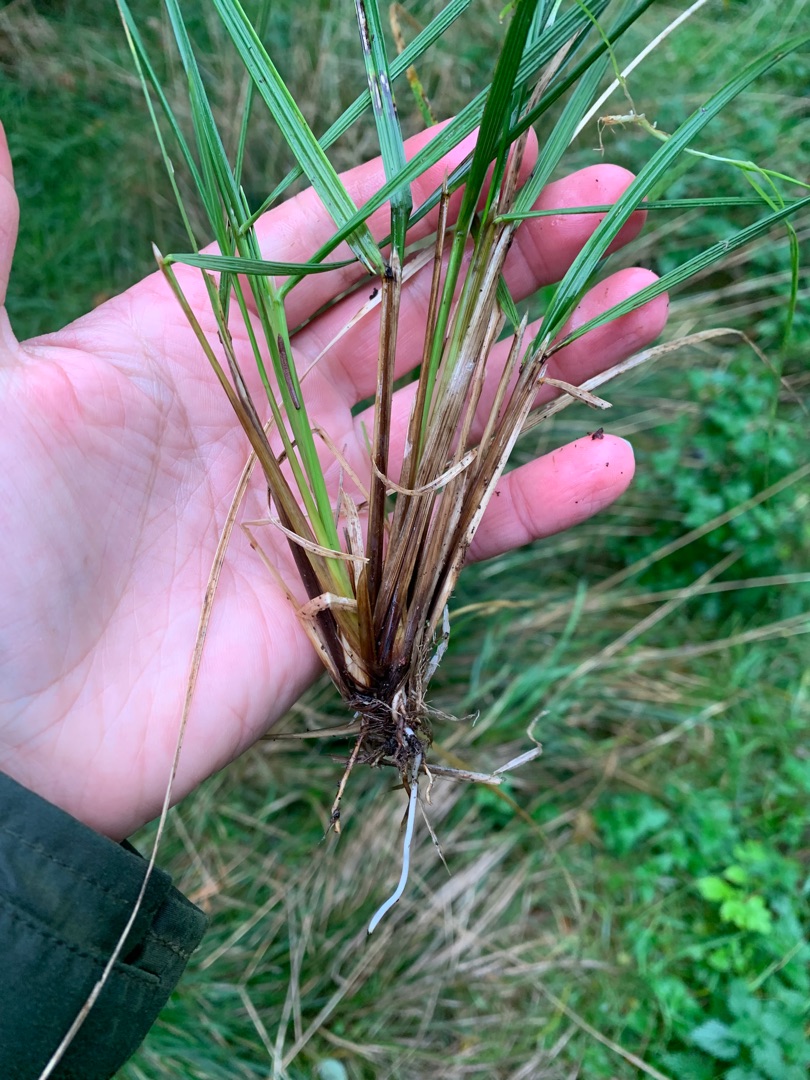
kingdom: Plantae
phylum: Tracheophyta
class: Liliopsida
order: Poales
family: Poaceae
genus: Deschampsia
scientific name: Deschampsia cespitosa
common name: Mose-bunke
